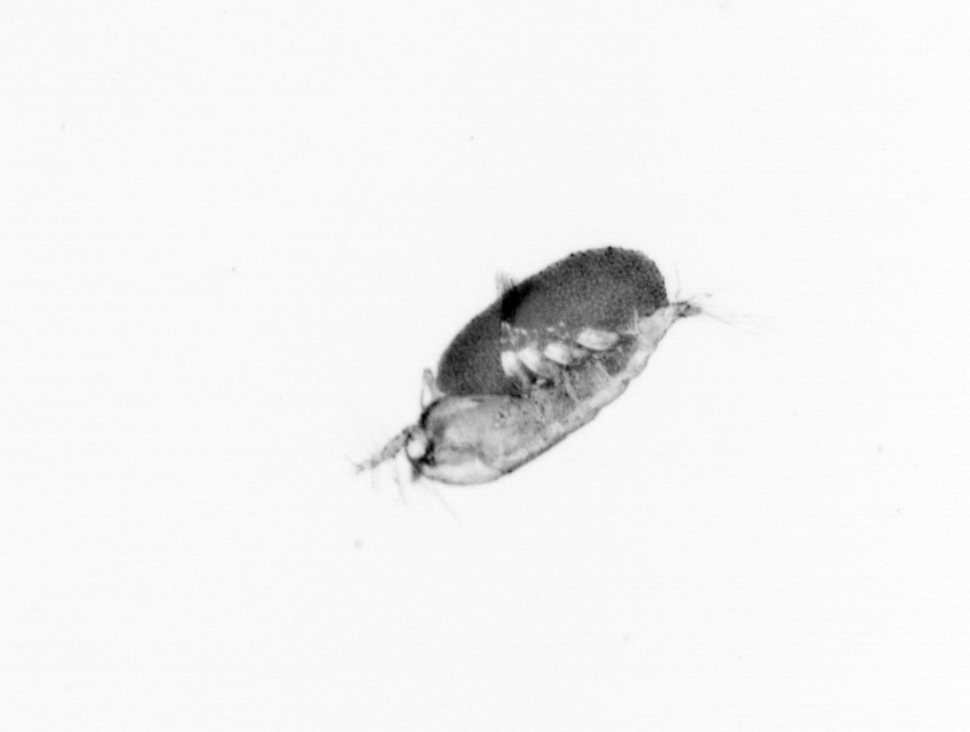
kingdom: Animalia
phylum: Arthropoda
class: Copepoda
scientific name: Copepoda
